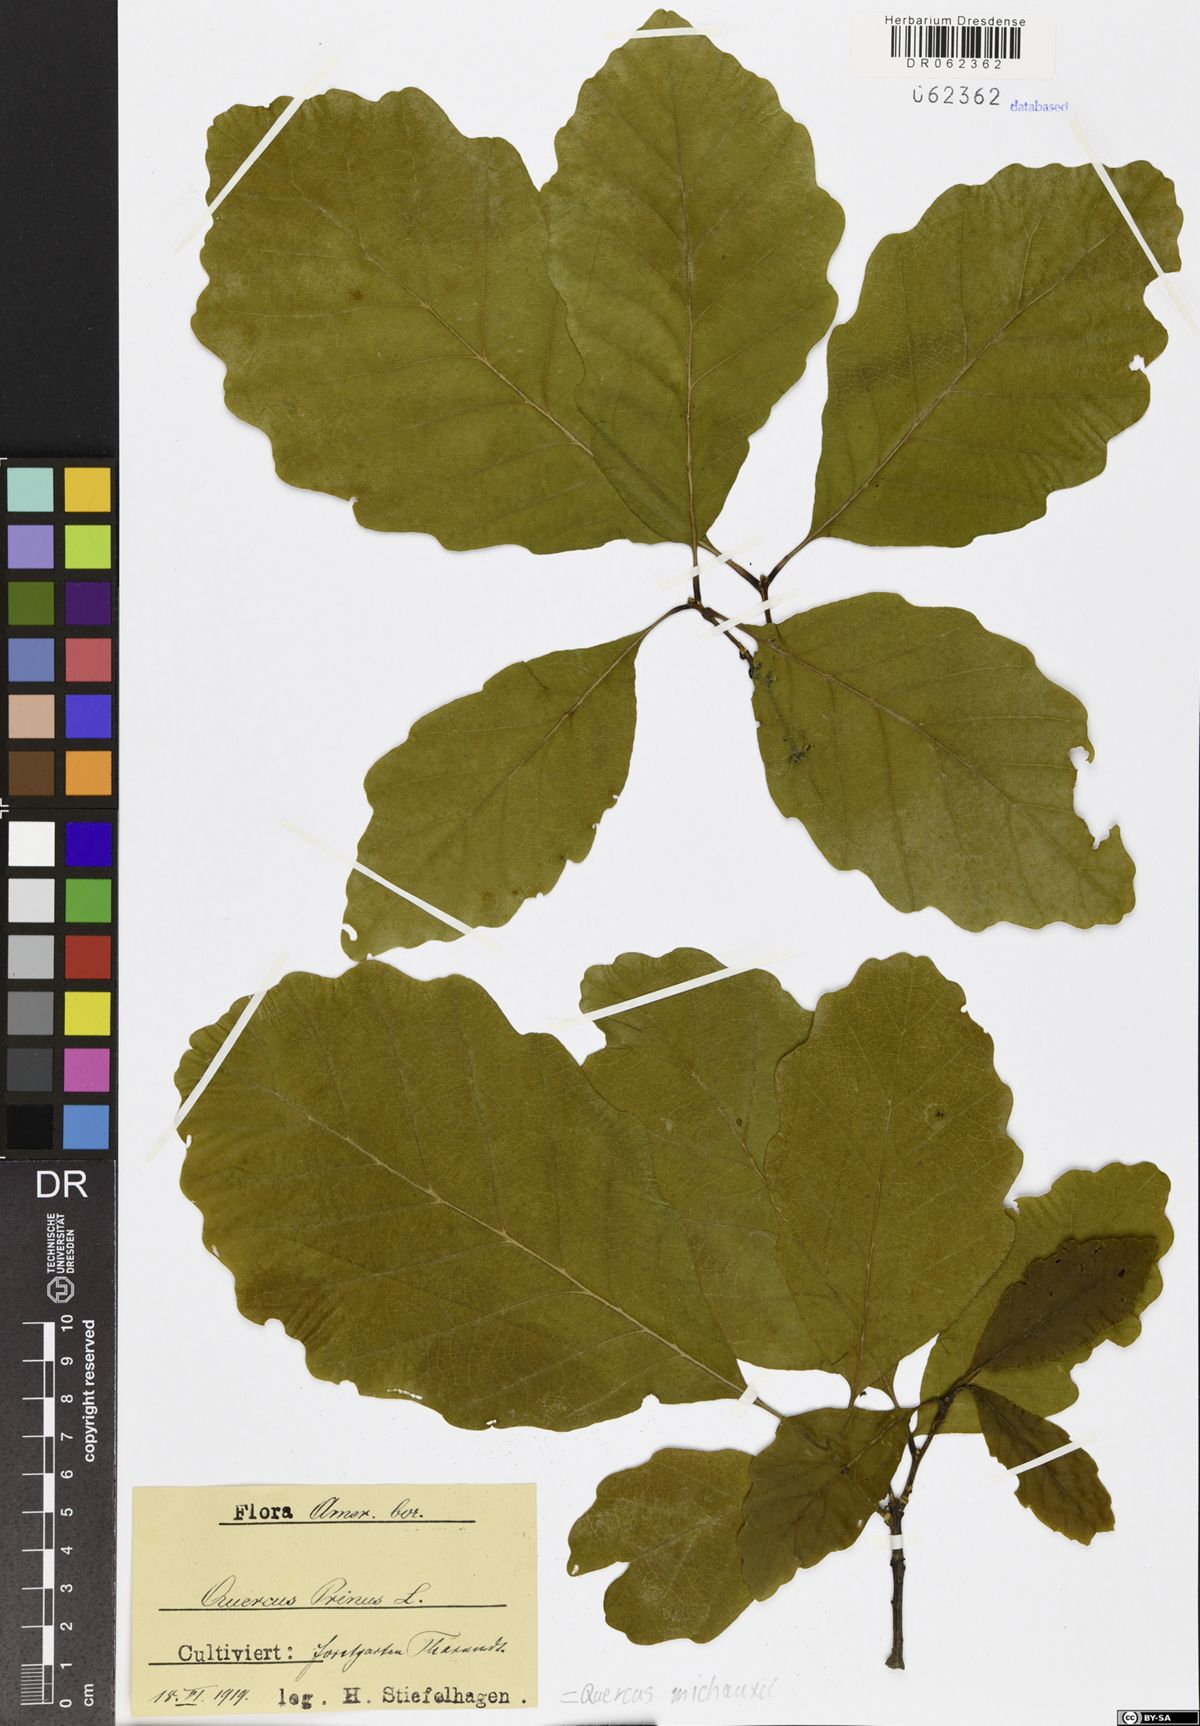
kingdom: Plantae
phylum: Tracheophyta
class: Magnoliopsida
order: Fagales
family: Fagaceae
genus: Quercus
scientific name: Quercus michauxii
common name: Swamp chestnut oak
